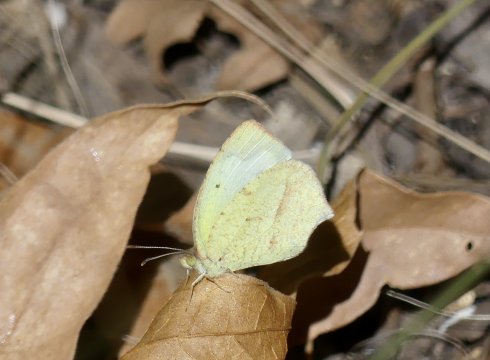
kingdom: Animalia
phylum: Arthropoda
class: Insecta
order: Lepidoptera
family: Pieridae
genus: Eurema
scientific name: Eurema mexicana
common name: Mexican Yellow
